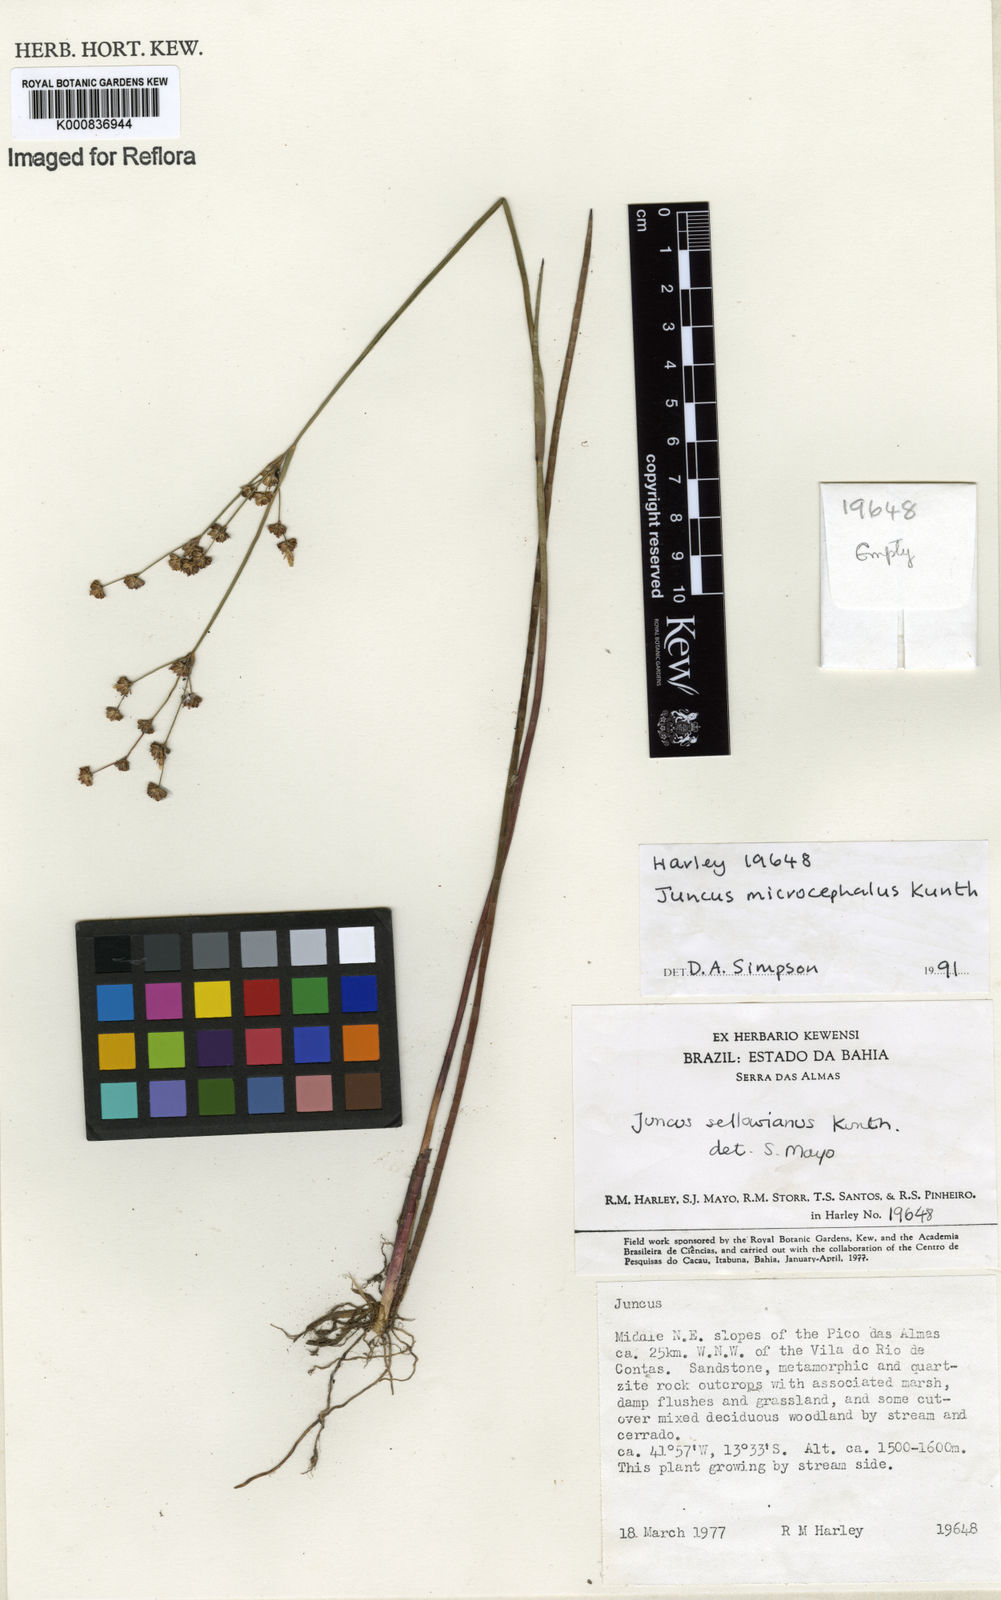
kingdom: Plantae
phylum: Tracheophyta
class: Liliopsida
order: Poales
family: Juncaceae
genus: Juncus
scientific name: Juncus microcephalus
